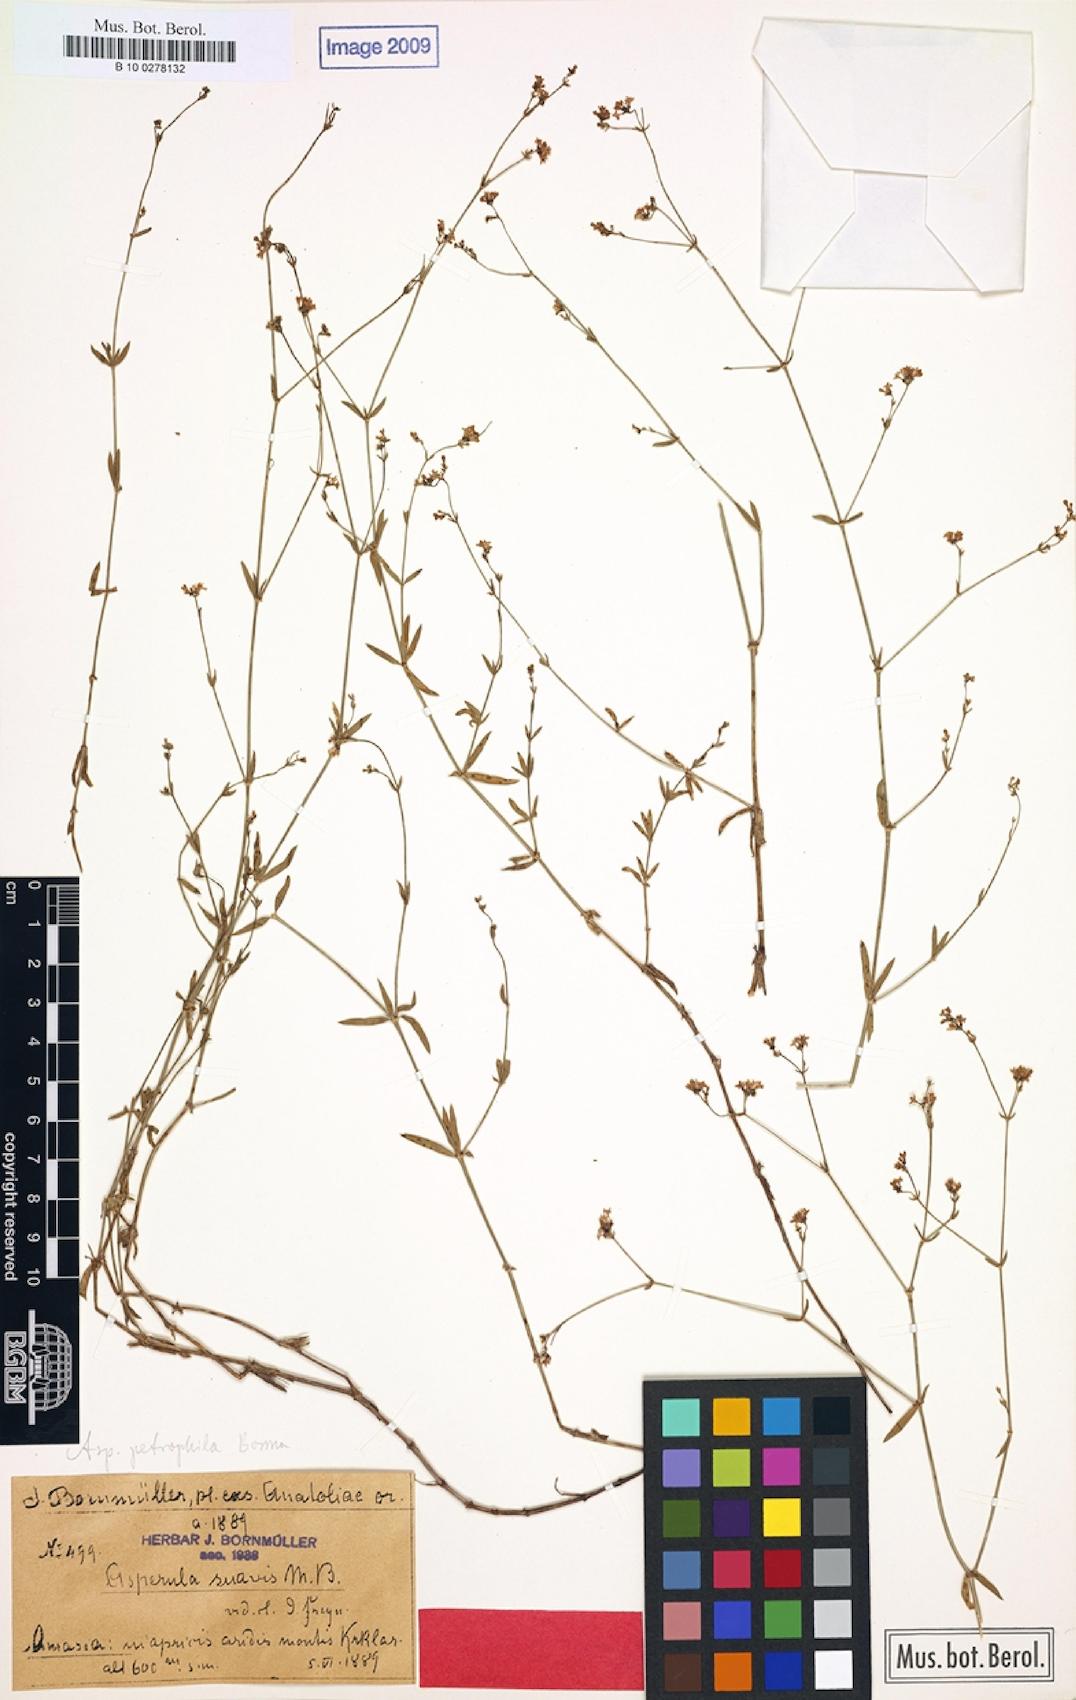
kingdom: Plantae
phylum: Tracheophyta
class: Magnoliopsida
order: Gentianales
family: Rubiaceae
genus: Asperula
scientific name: Asperula suavis
